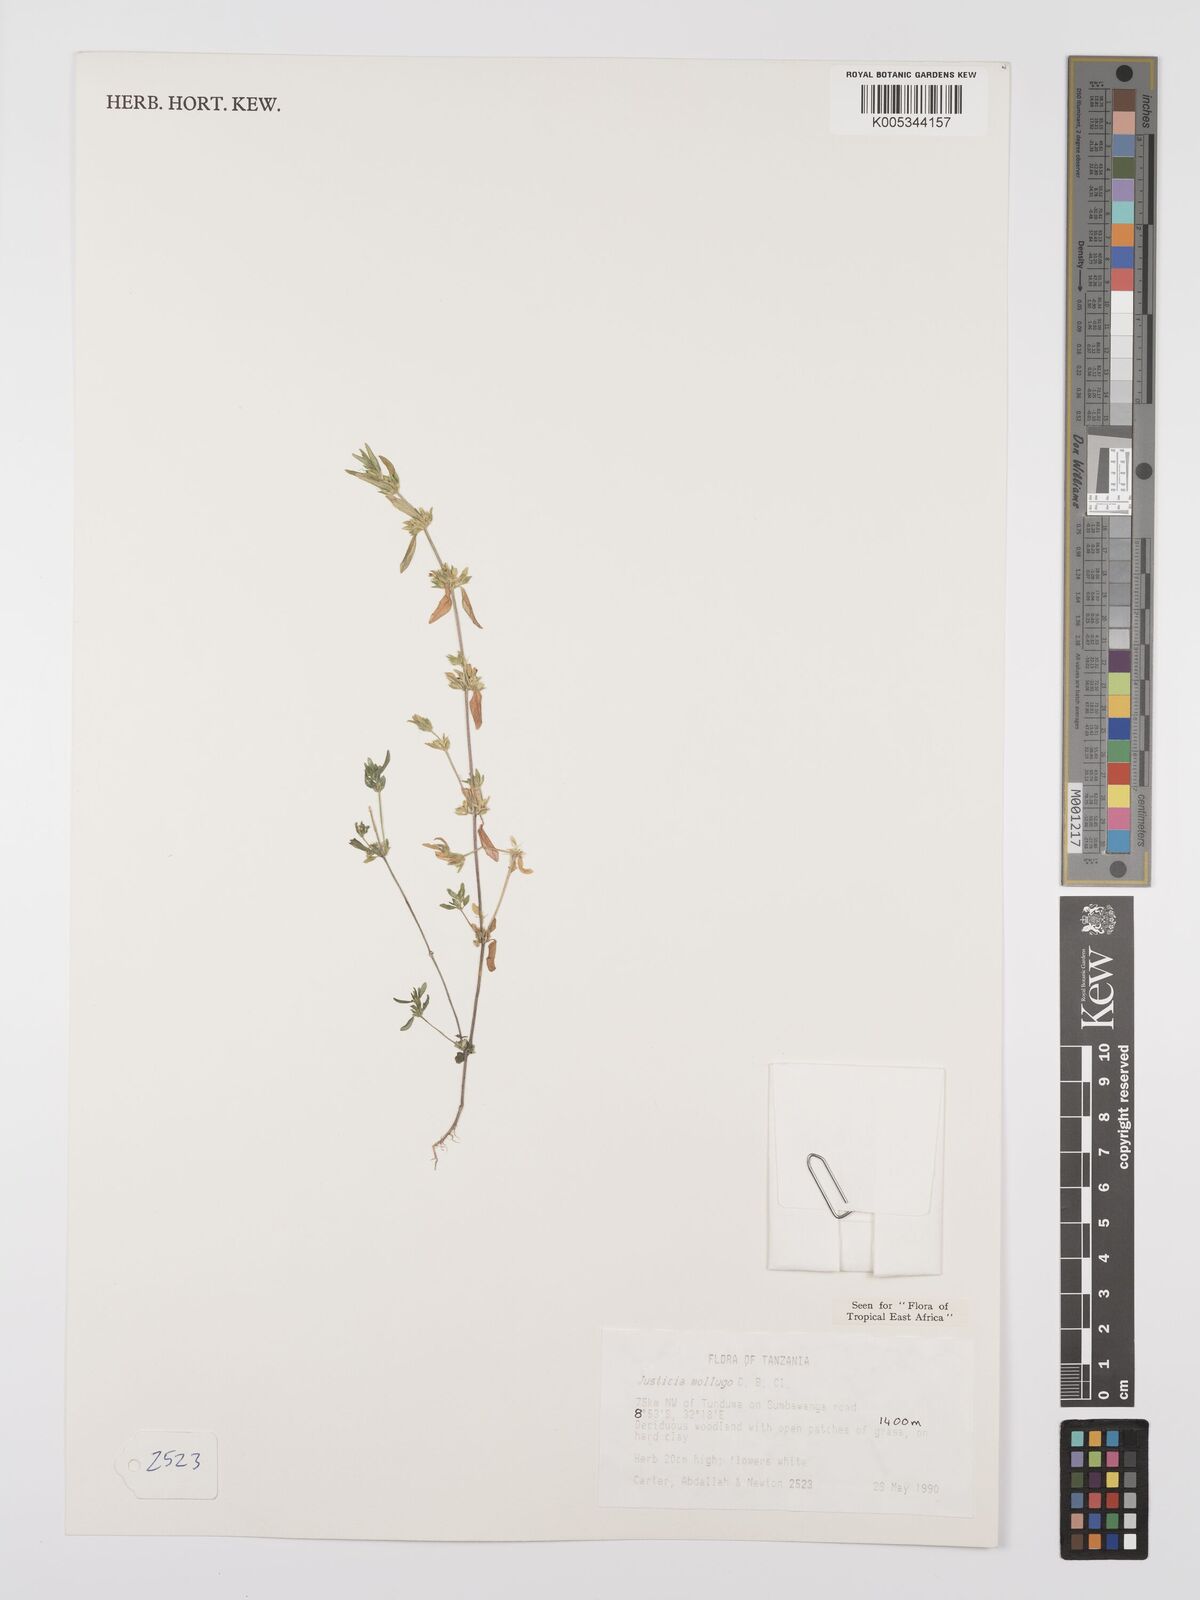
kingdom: Plantae
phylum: Tracheophyta
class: Magnoliopsida
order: Lamiales
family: Acanthaceae
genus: Justicia
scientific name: Justicia mollugo
